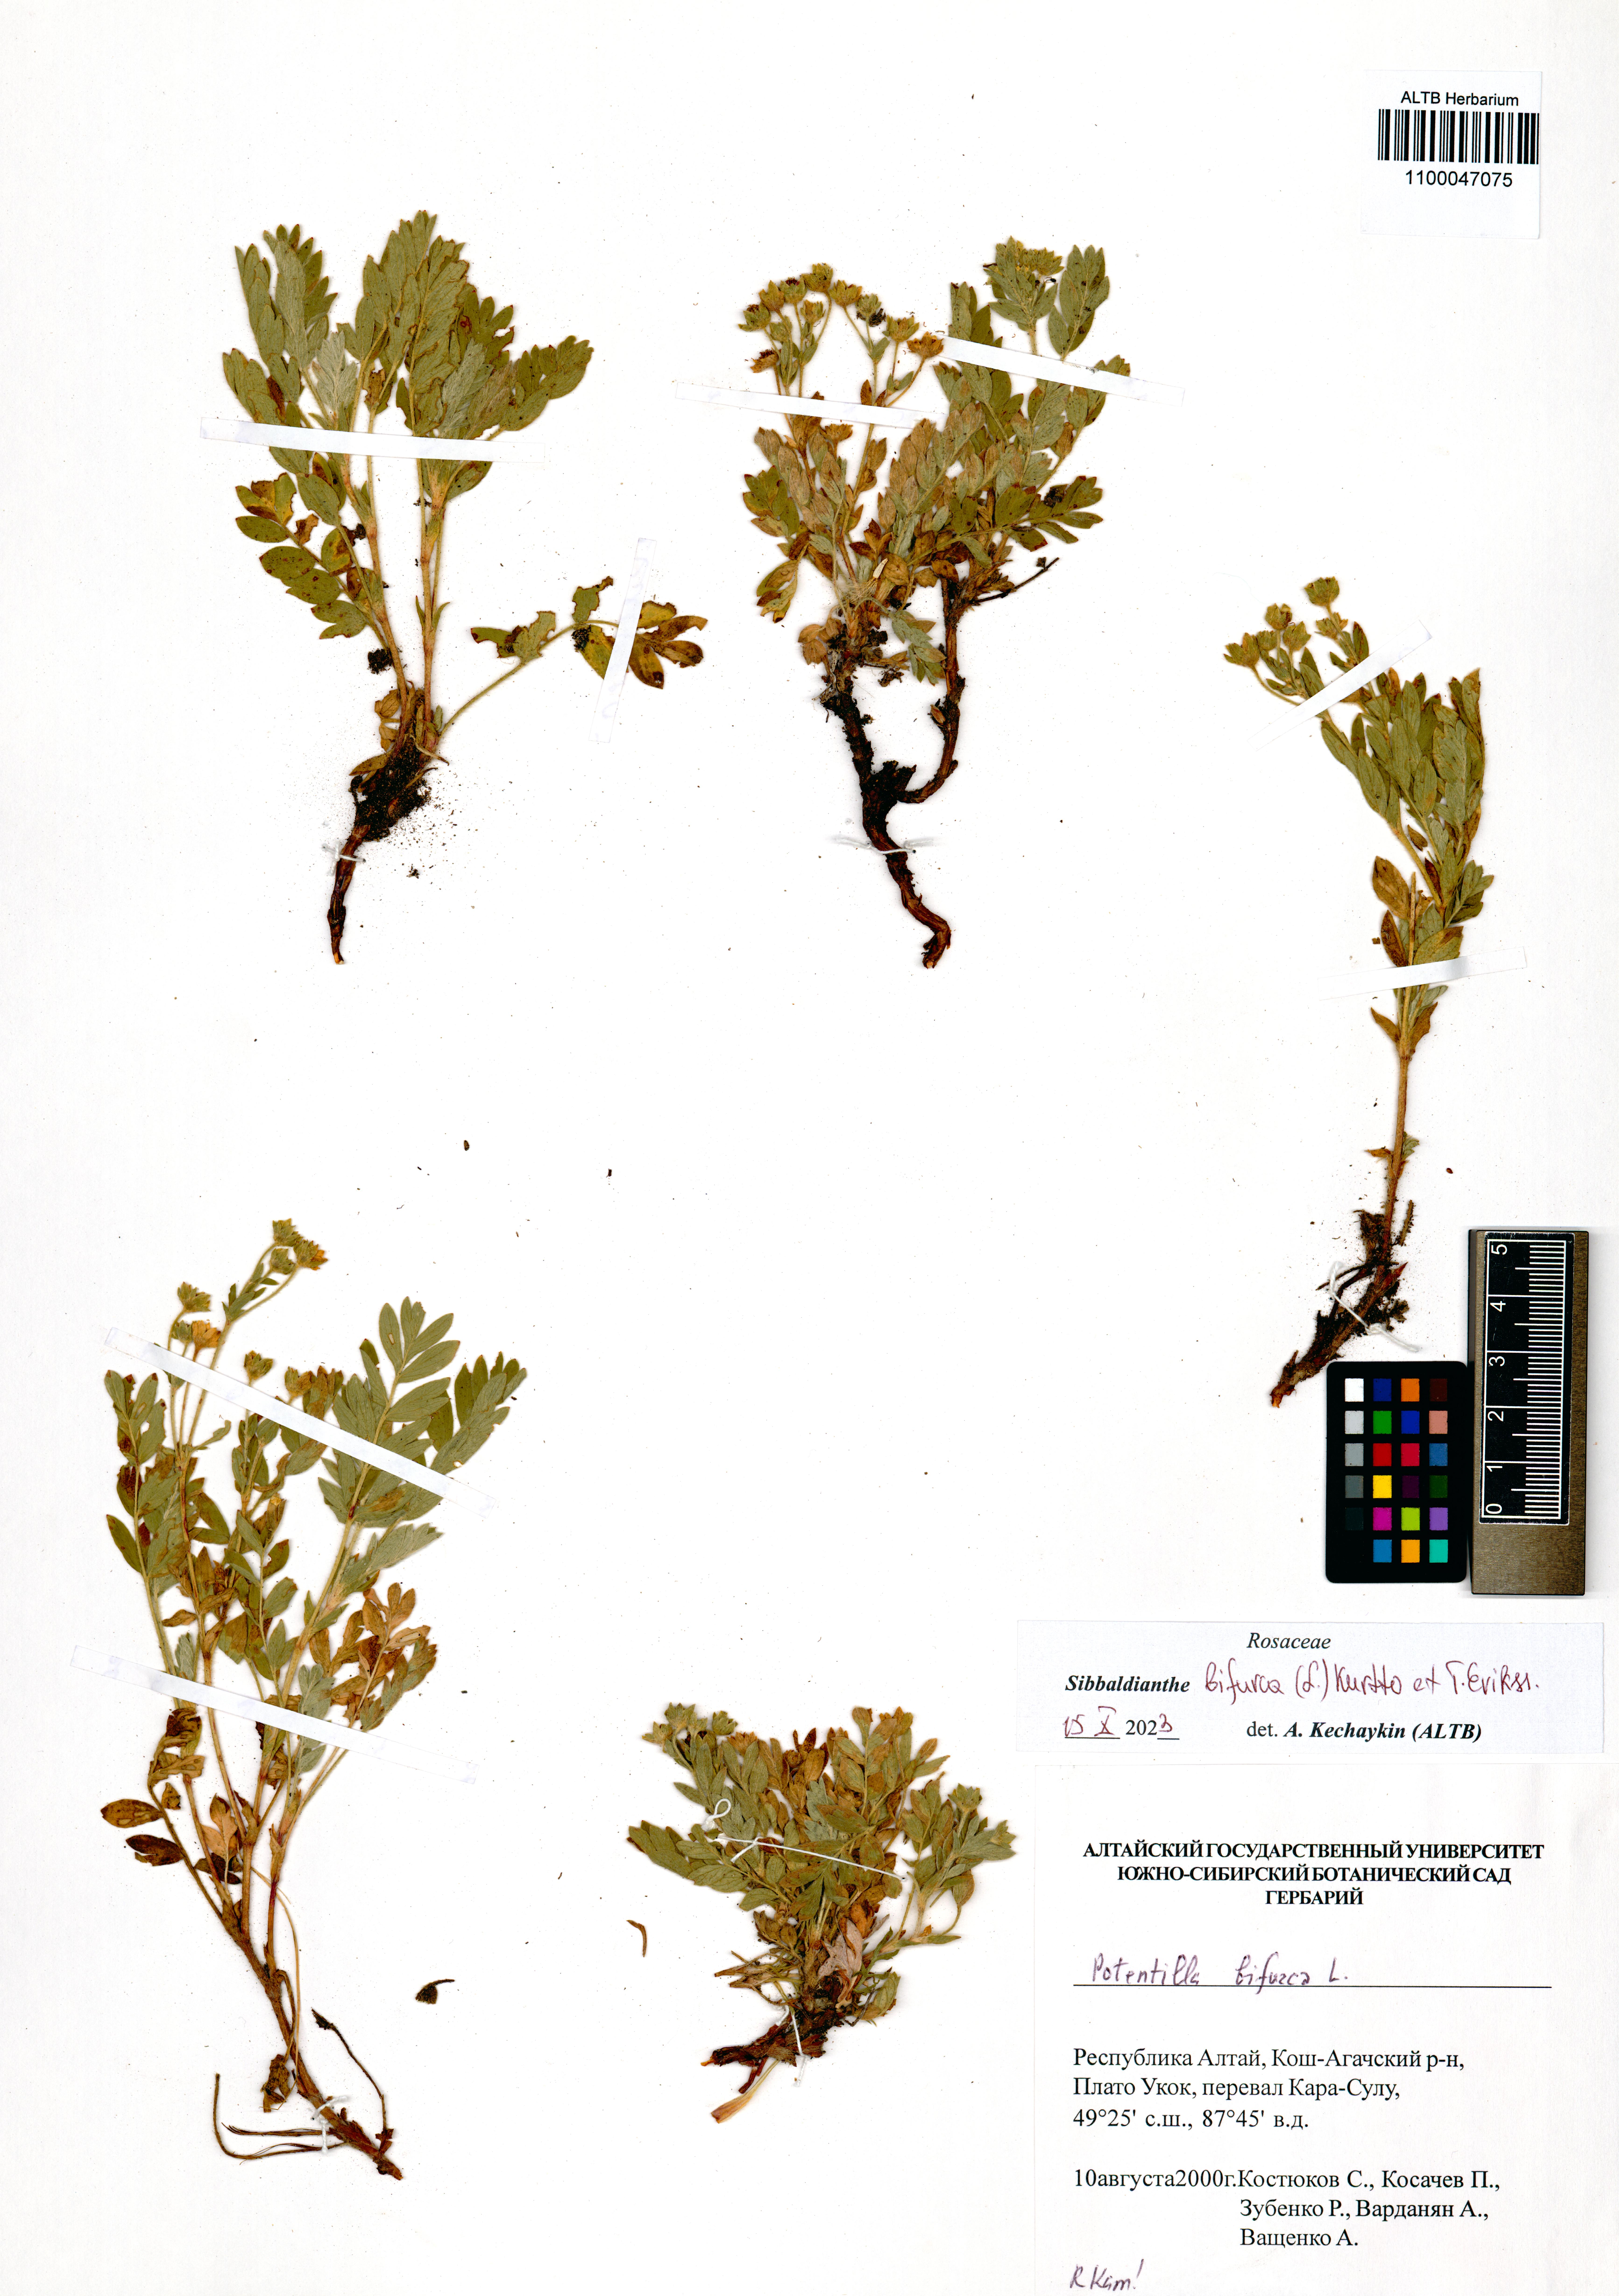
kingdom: Plantae
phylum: Tracheophyta
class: Magnoliopsida
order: Rosales
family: Rosaceae
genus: Sibbaldianthe
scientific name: Sibbaldianthe bifurca
